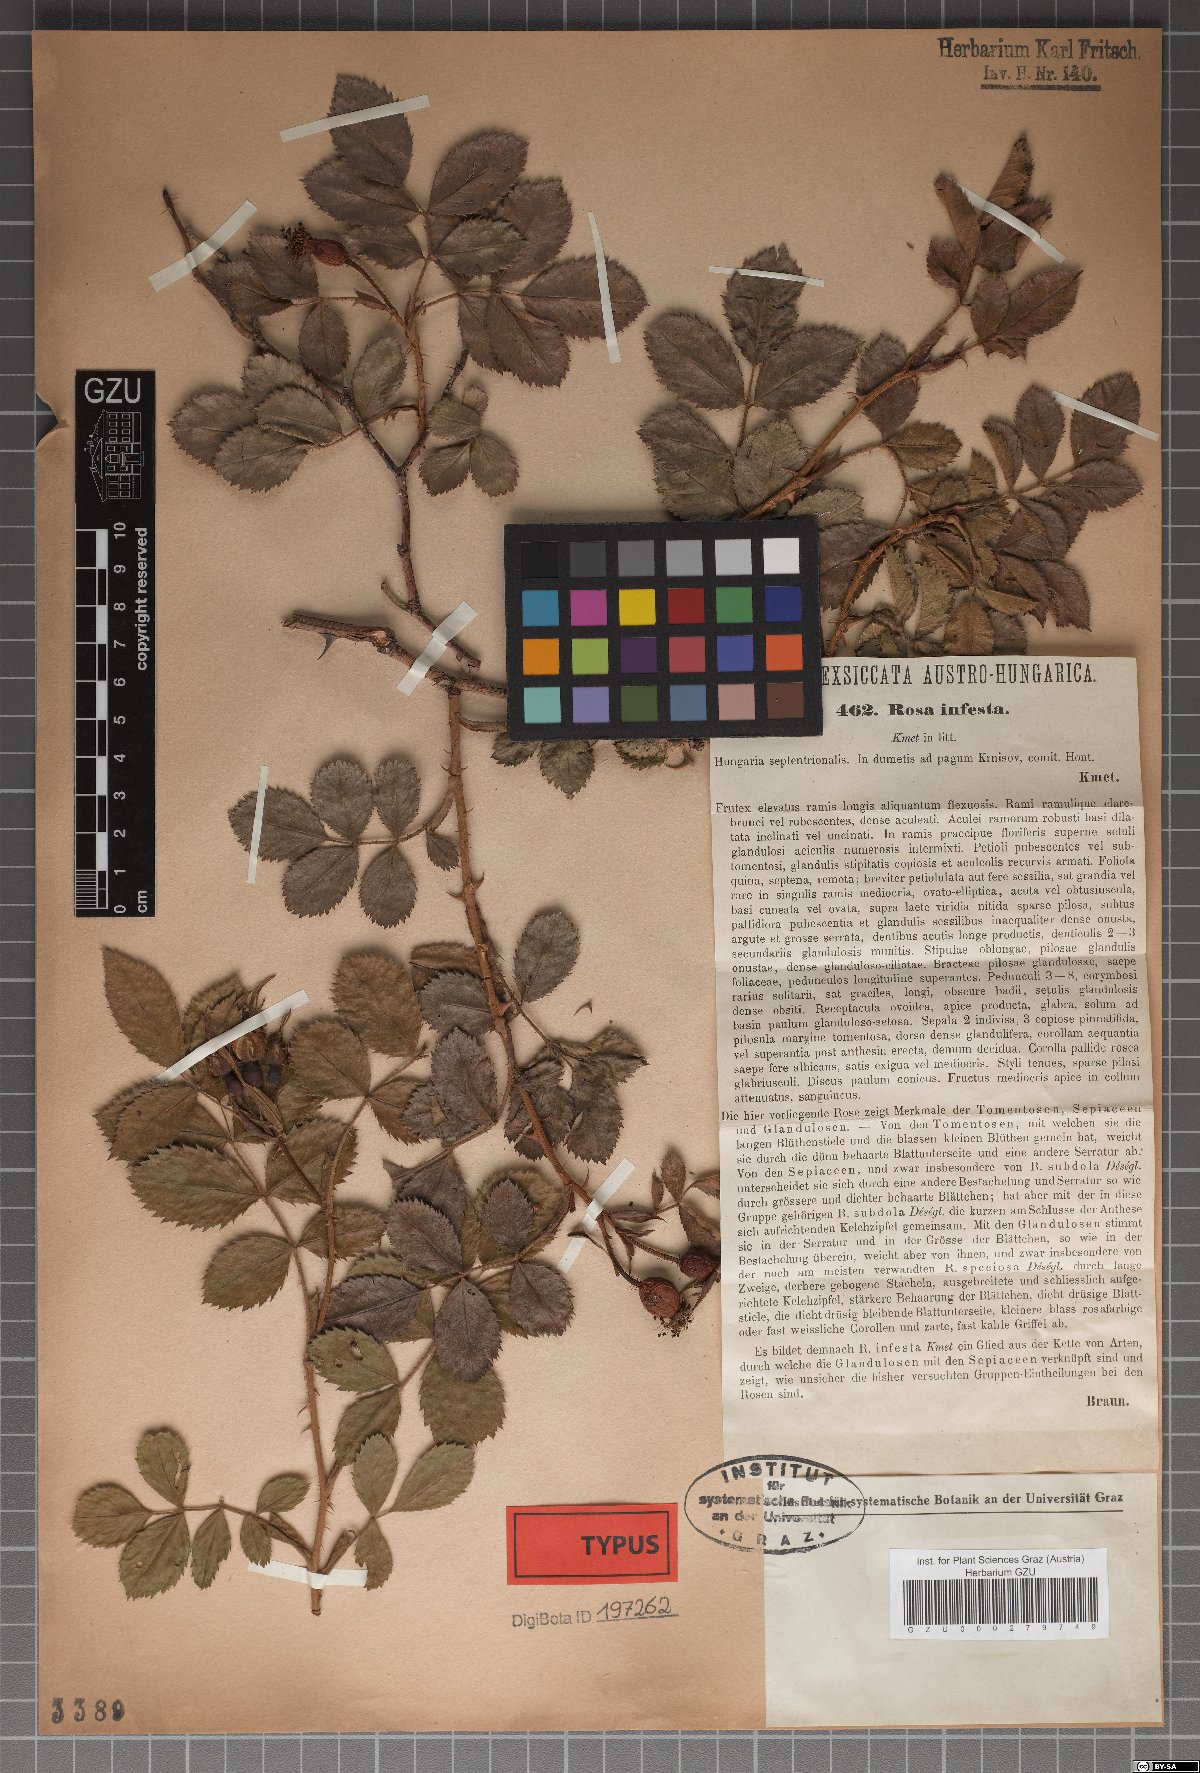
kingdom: Plantae
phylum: Tracheophyta
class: Magnoliopsida
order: Rosales
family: Rosaceae
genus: Rosa
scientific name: Rosa infesta
